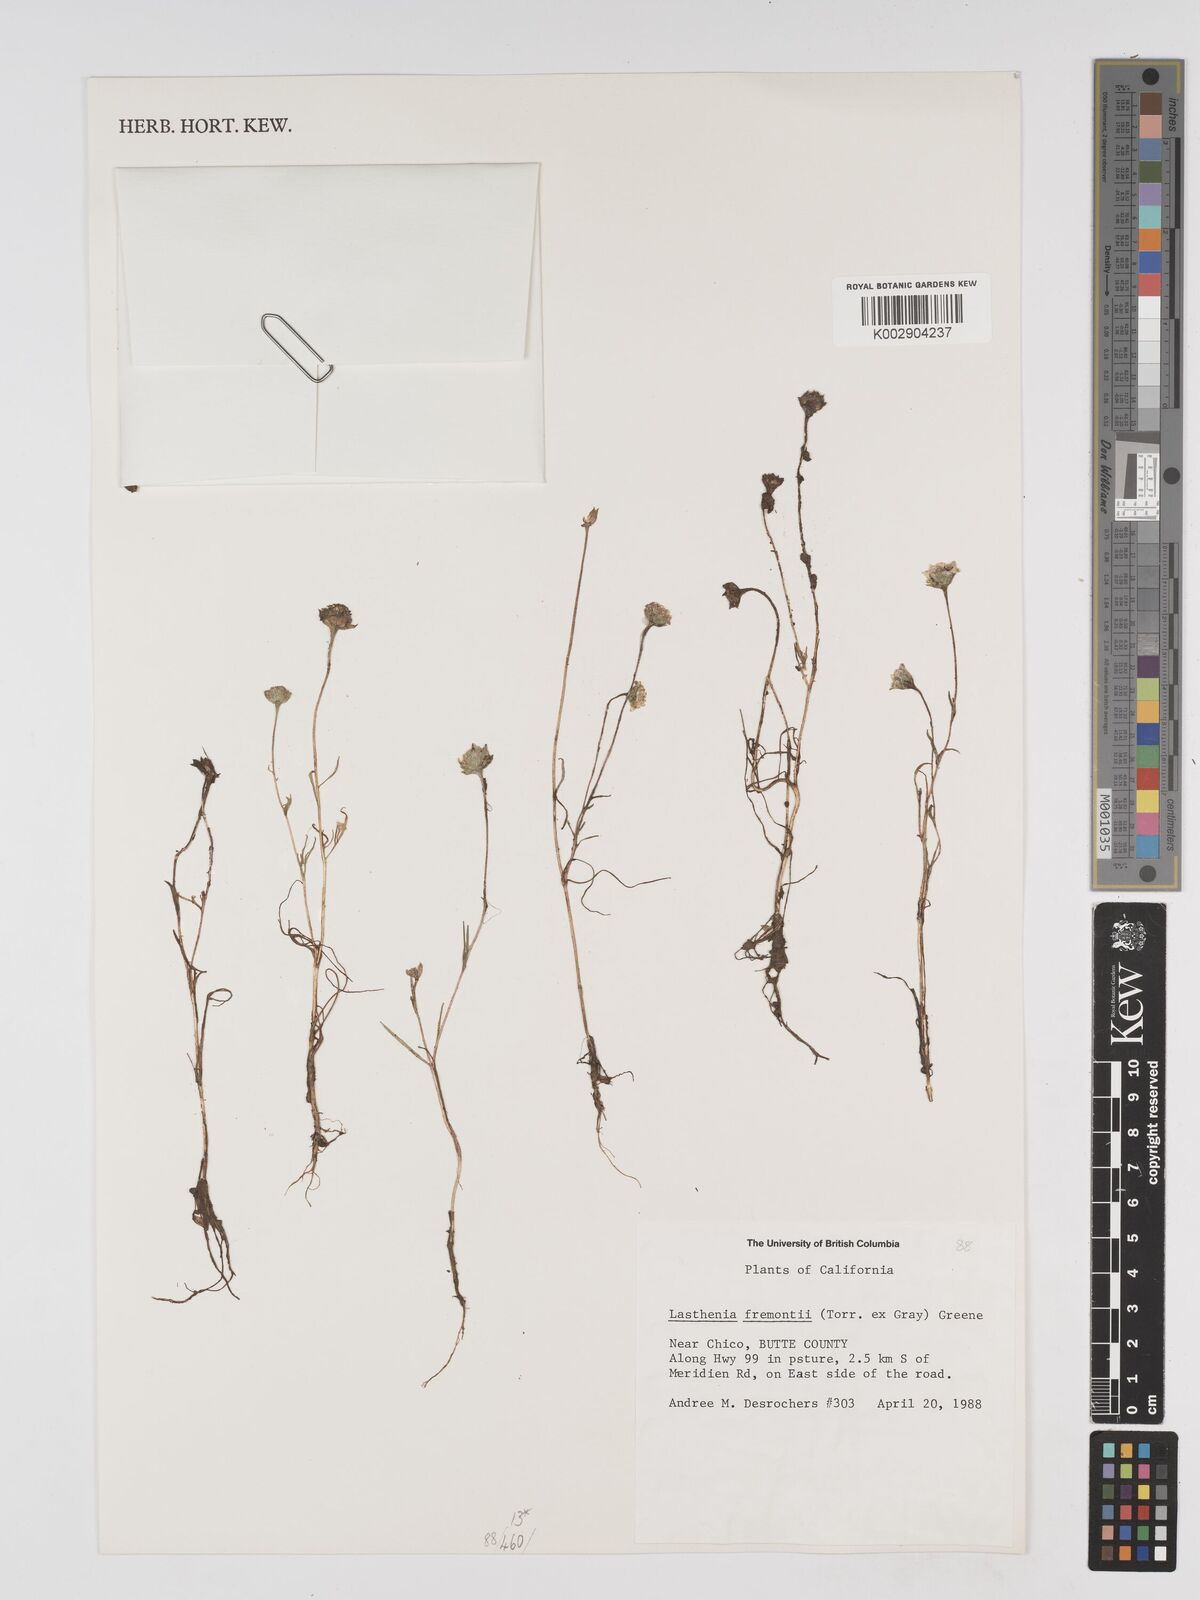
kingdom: Plantae
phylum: Tracheophyta
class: Magnoliopsida
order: Asterales
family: Asteraceae
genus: Lasthenia
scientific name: Lasthenia fremontii
